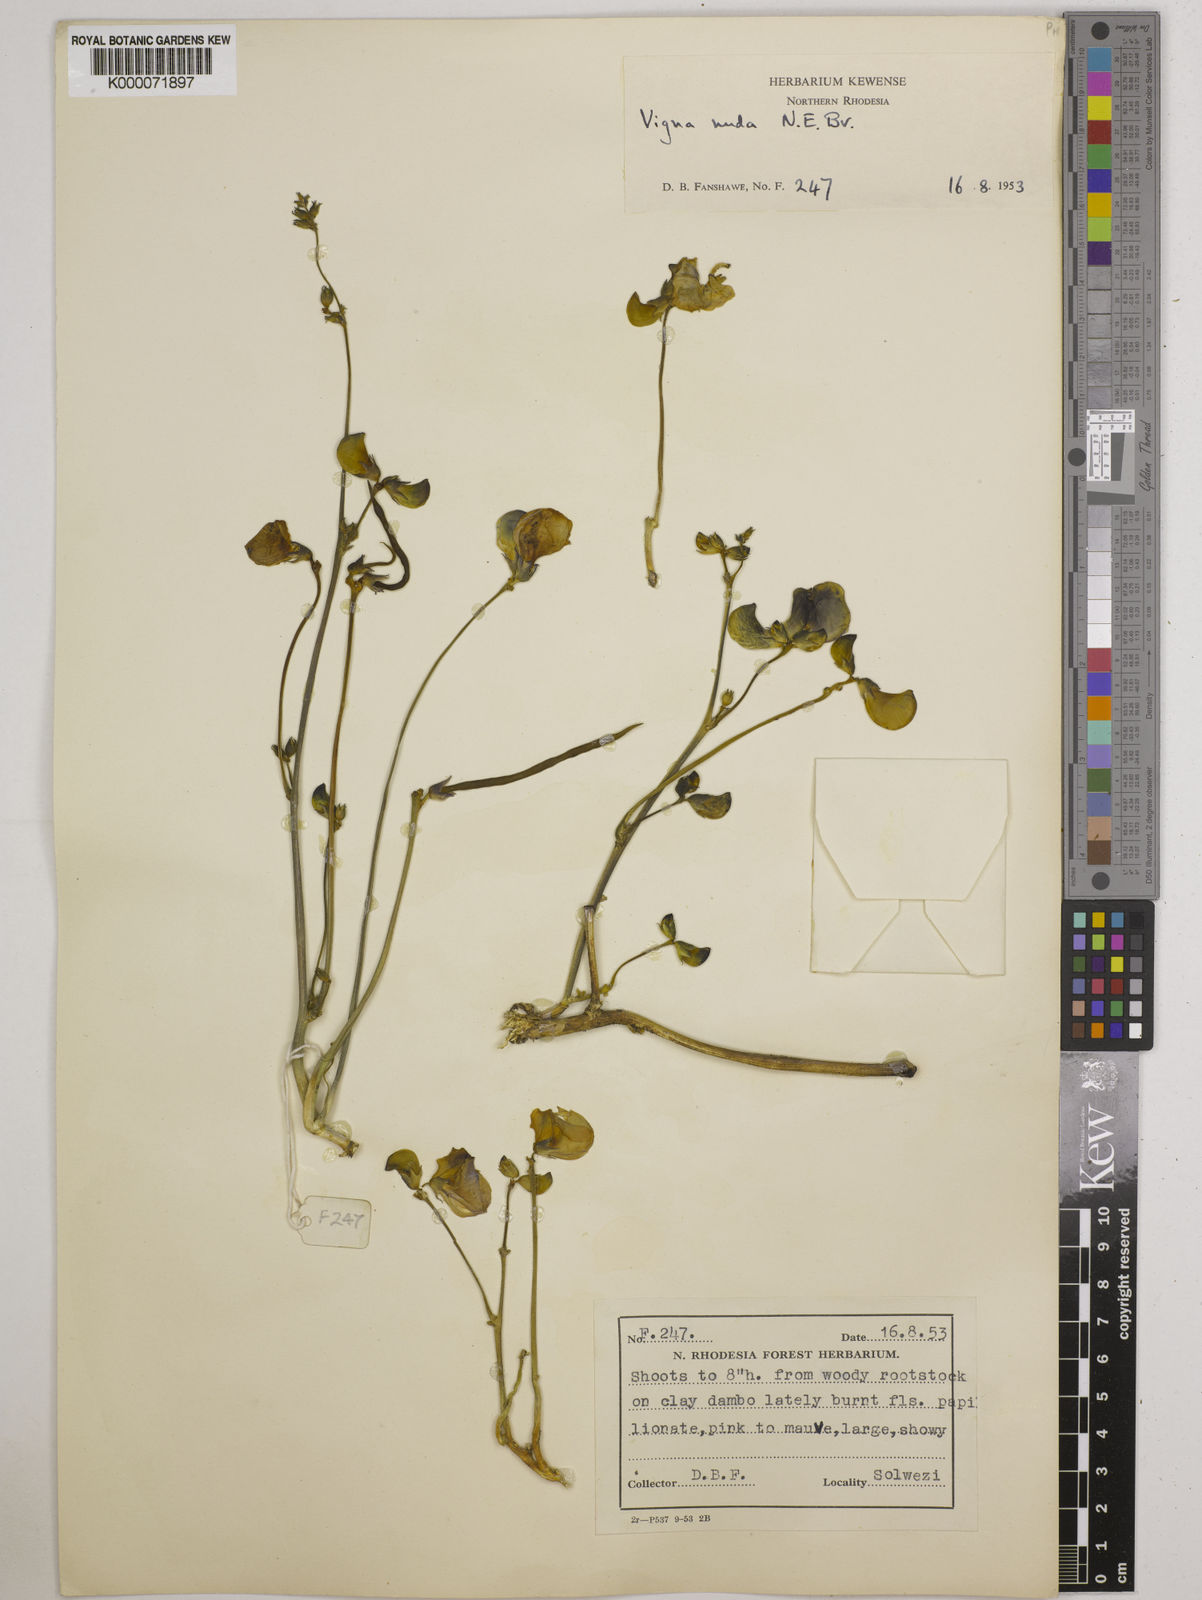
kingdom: Plantae
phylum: Tracheophyta
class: Magnoliopsida
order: Fabales
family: Fabaceae
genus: Vigna
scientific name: Vigna antunesii
